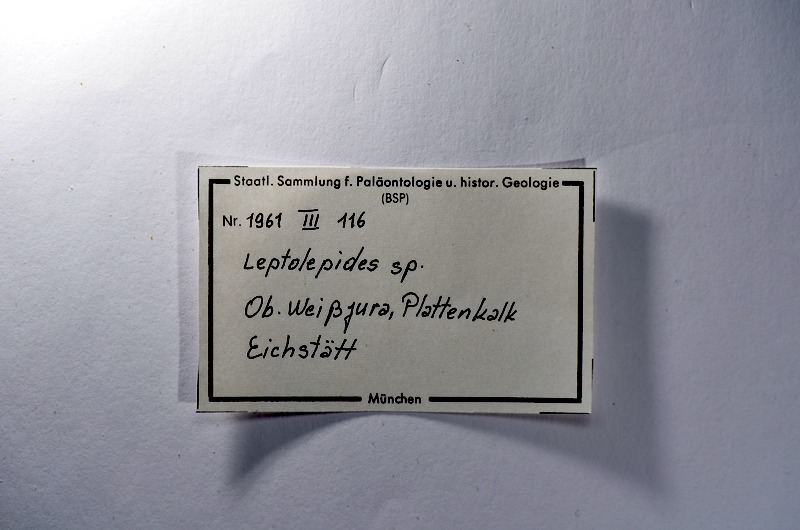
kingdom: Animalia
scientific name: Animalia
